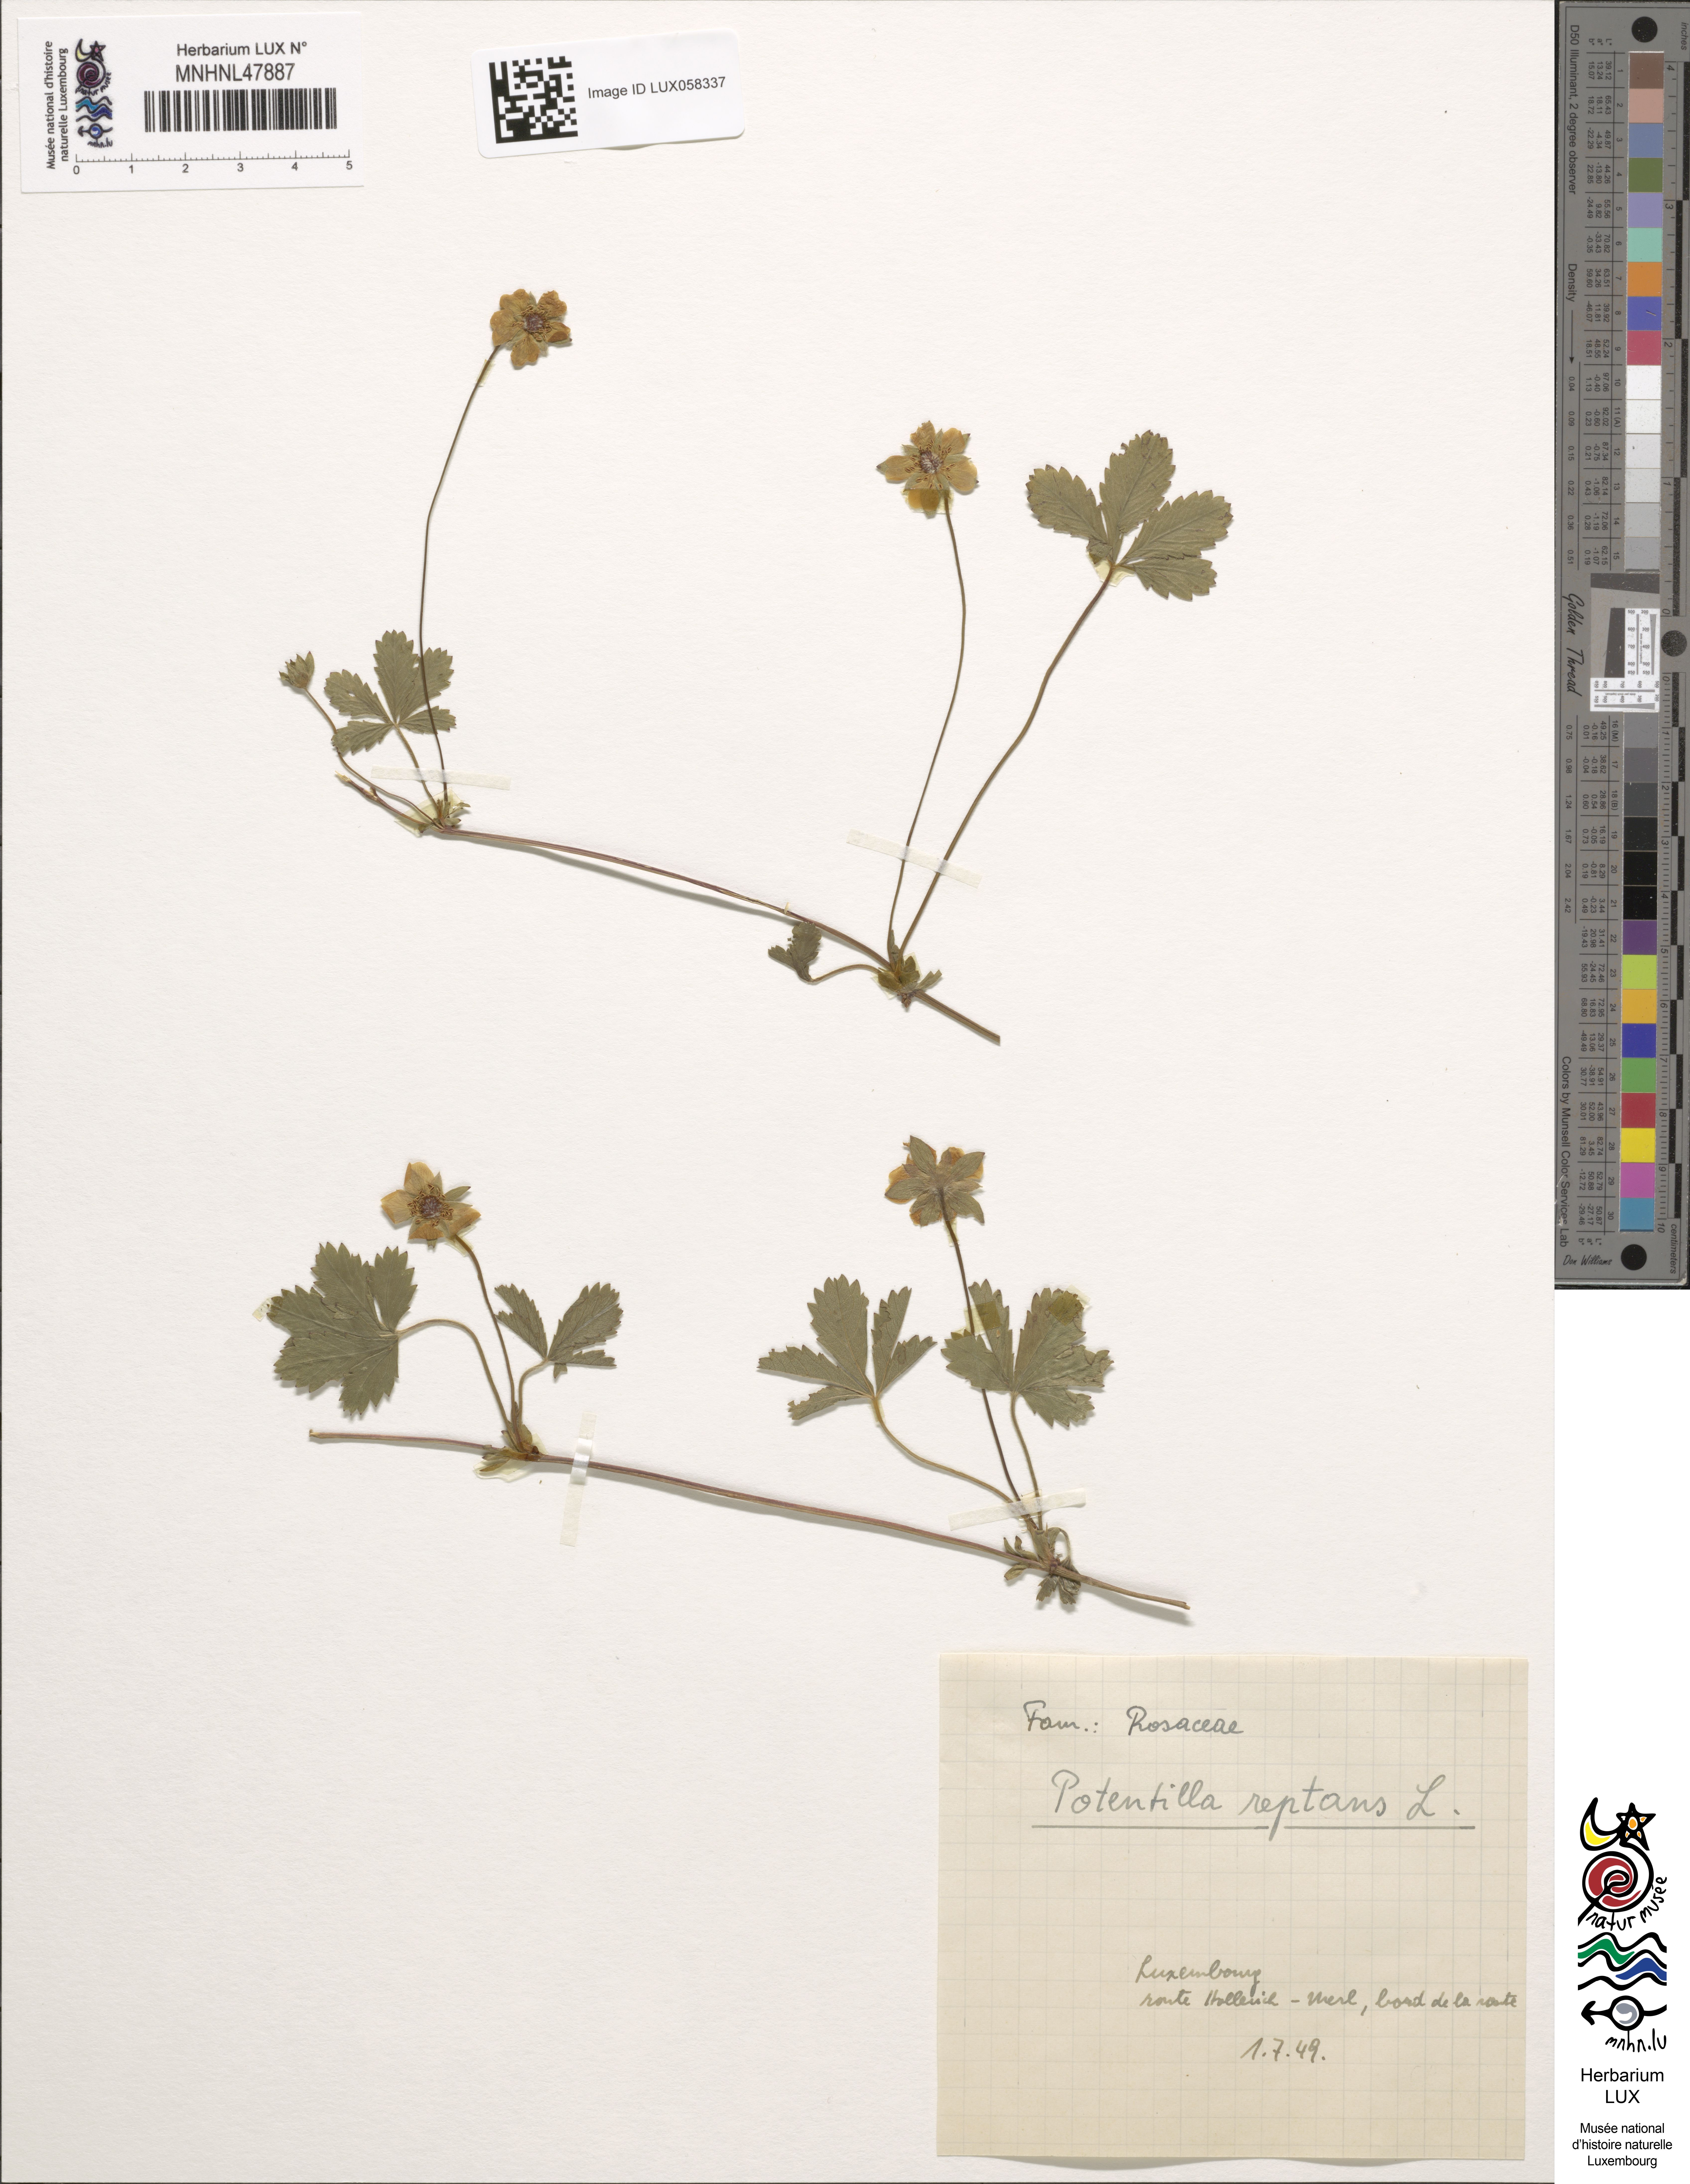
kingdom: Plantae
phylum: Tracheophyta
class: Magnoliopsida
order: Rosales
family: Rosaceae
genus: Potentilla
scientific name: Potentilla reptans
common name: Creeping cinquefoil
